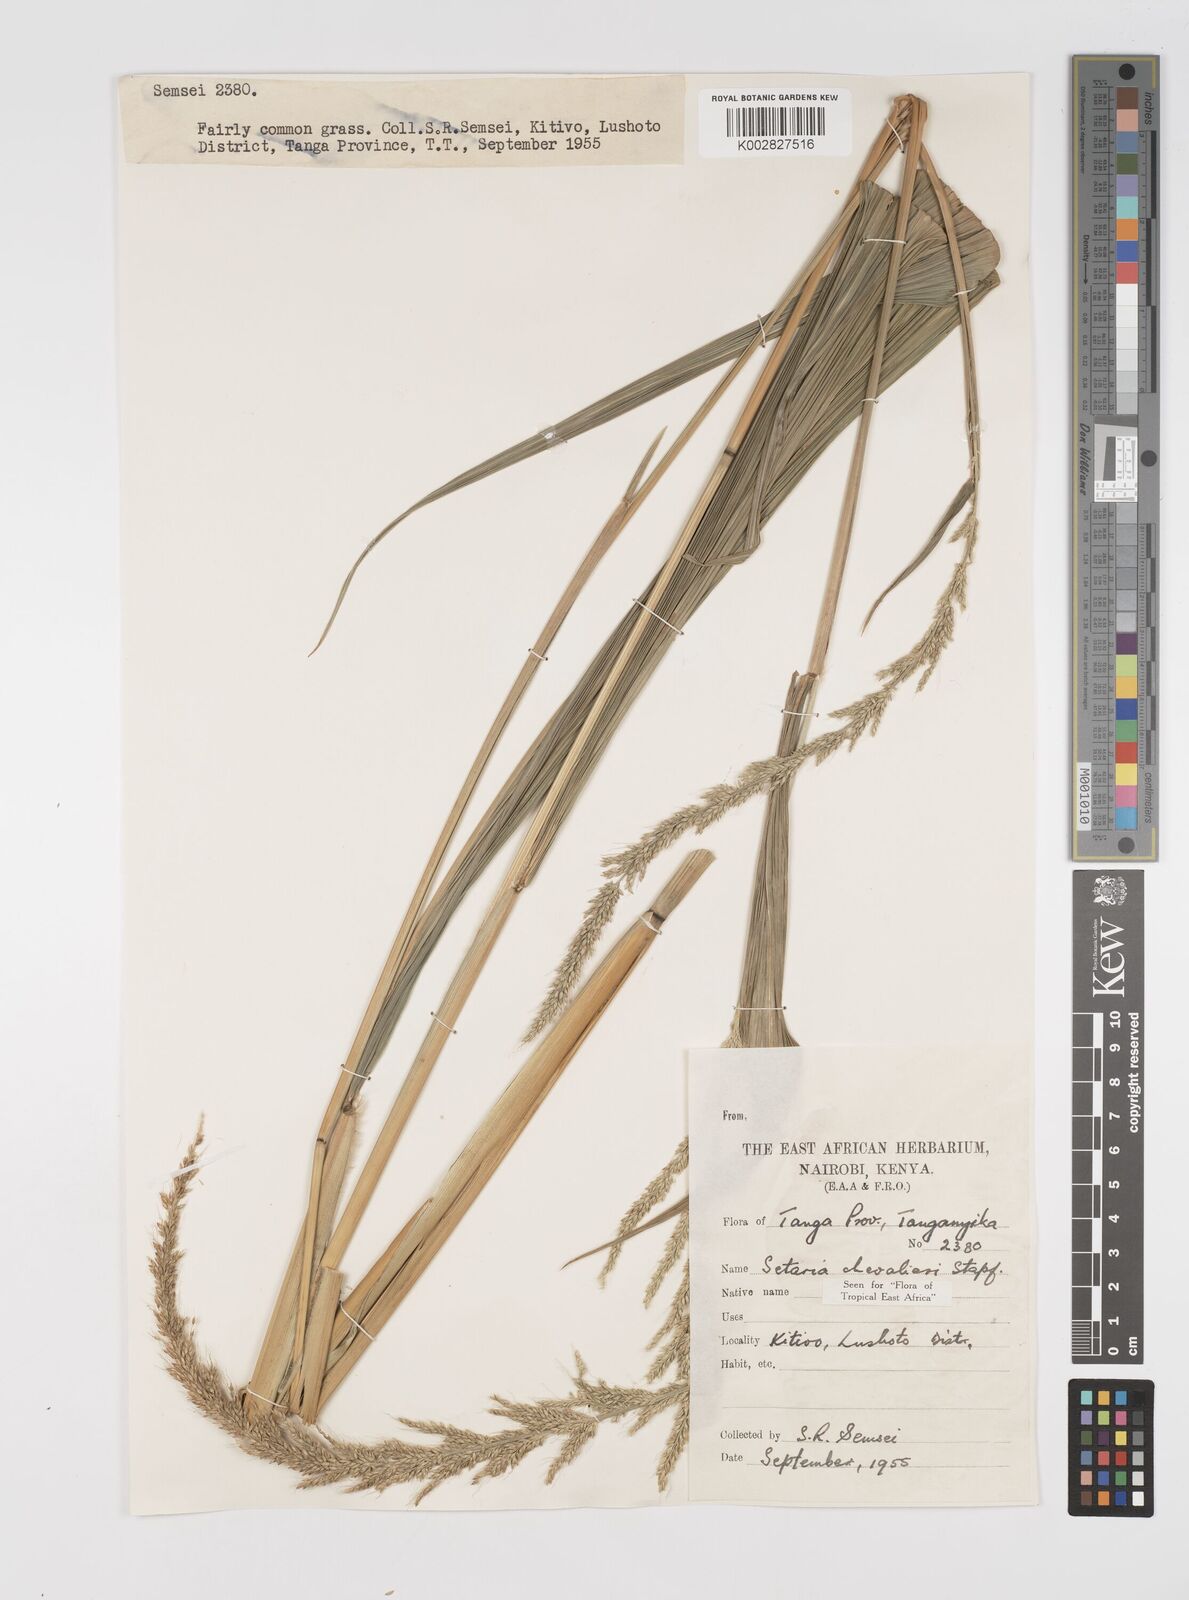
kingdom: Plantae
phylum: Tracheophyta
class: Liliopsida
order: Poales
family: Poaceae
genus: Setaria
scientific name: Setaria megaphylla
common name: Bigleaf bristlegrass
